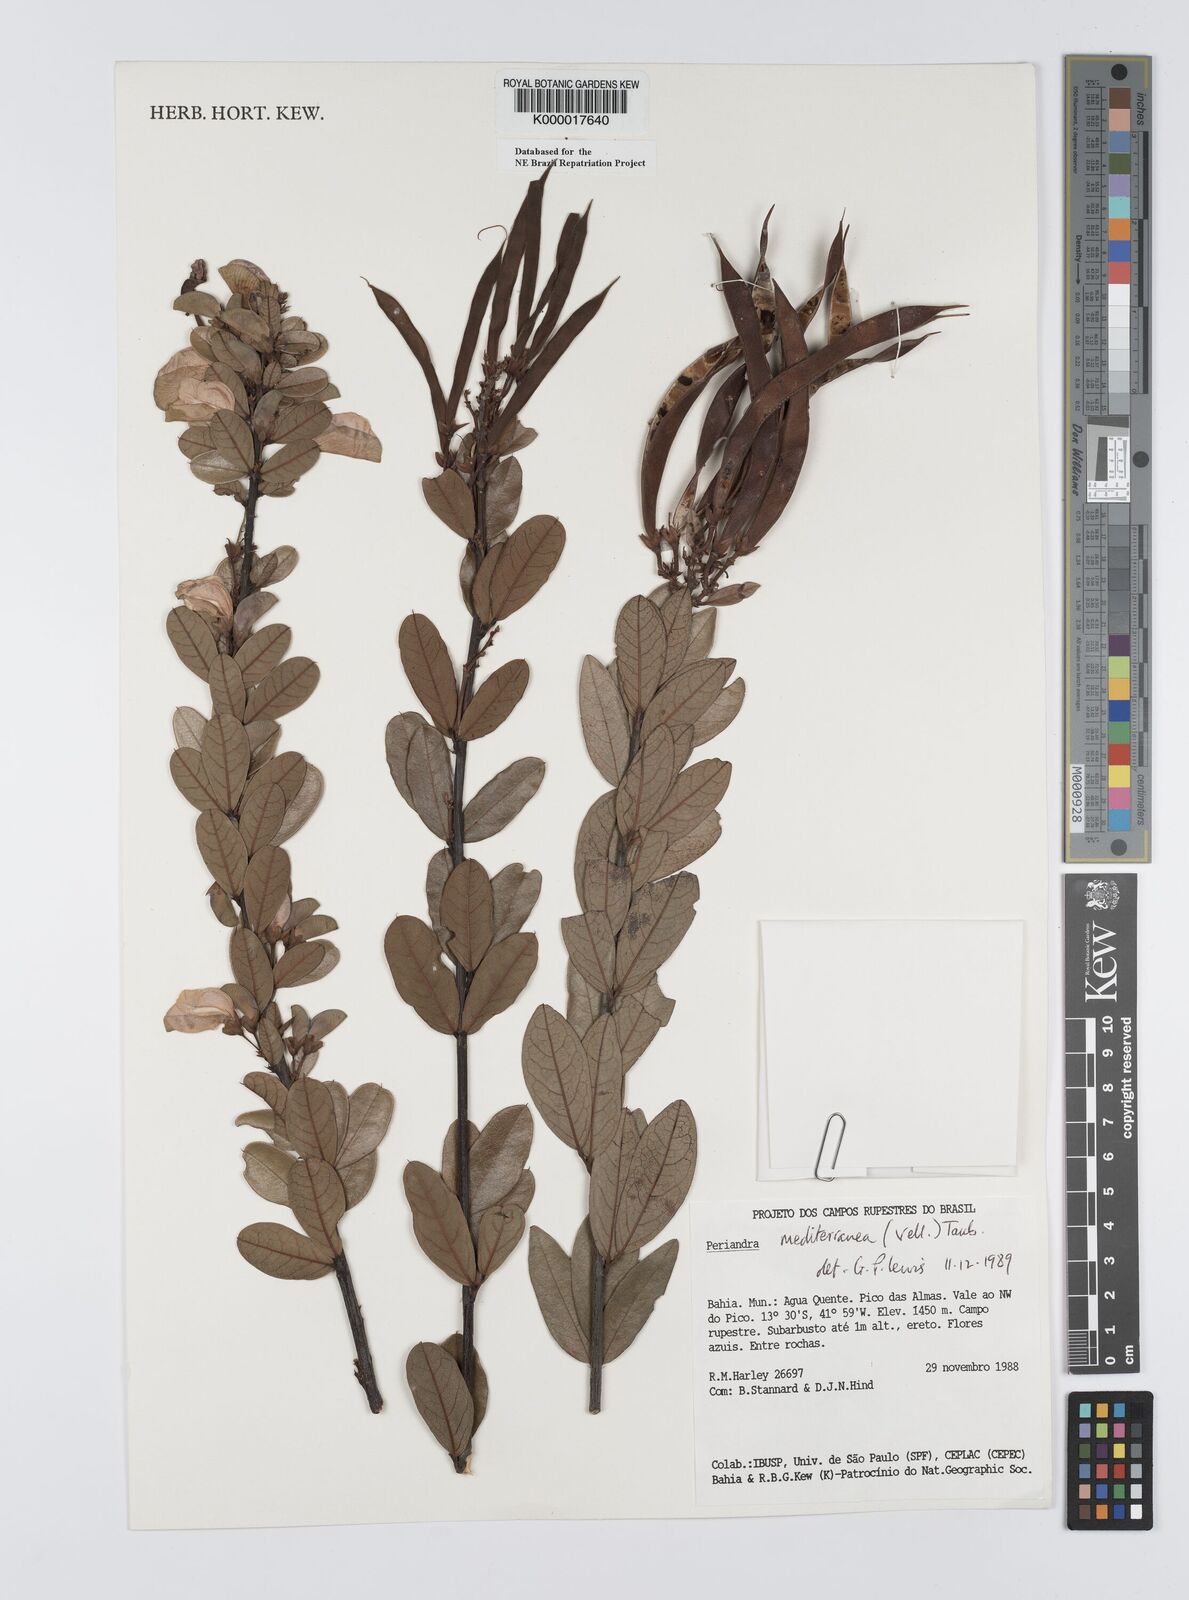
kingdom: Plantae
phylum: Tracheophyta
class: Magnoliopsida
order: Fabales
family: Fabaceae
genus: Periandra
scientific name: Periandra mediterranea
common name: Brazilian licorice
